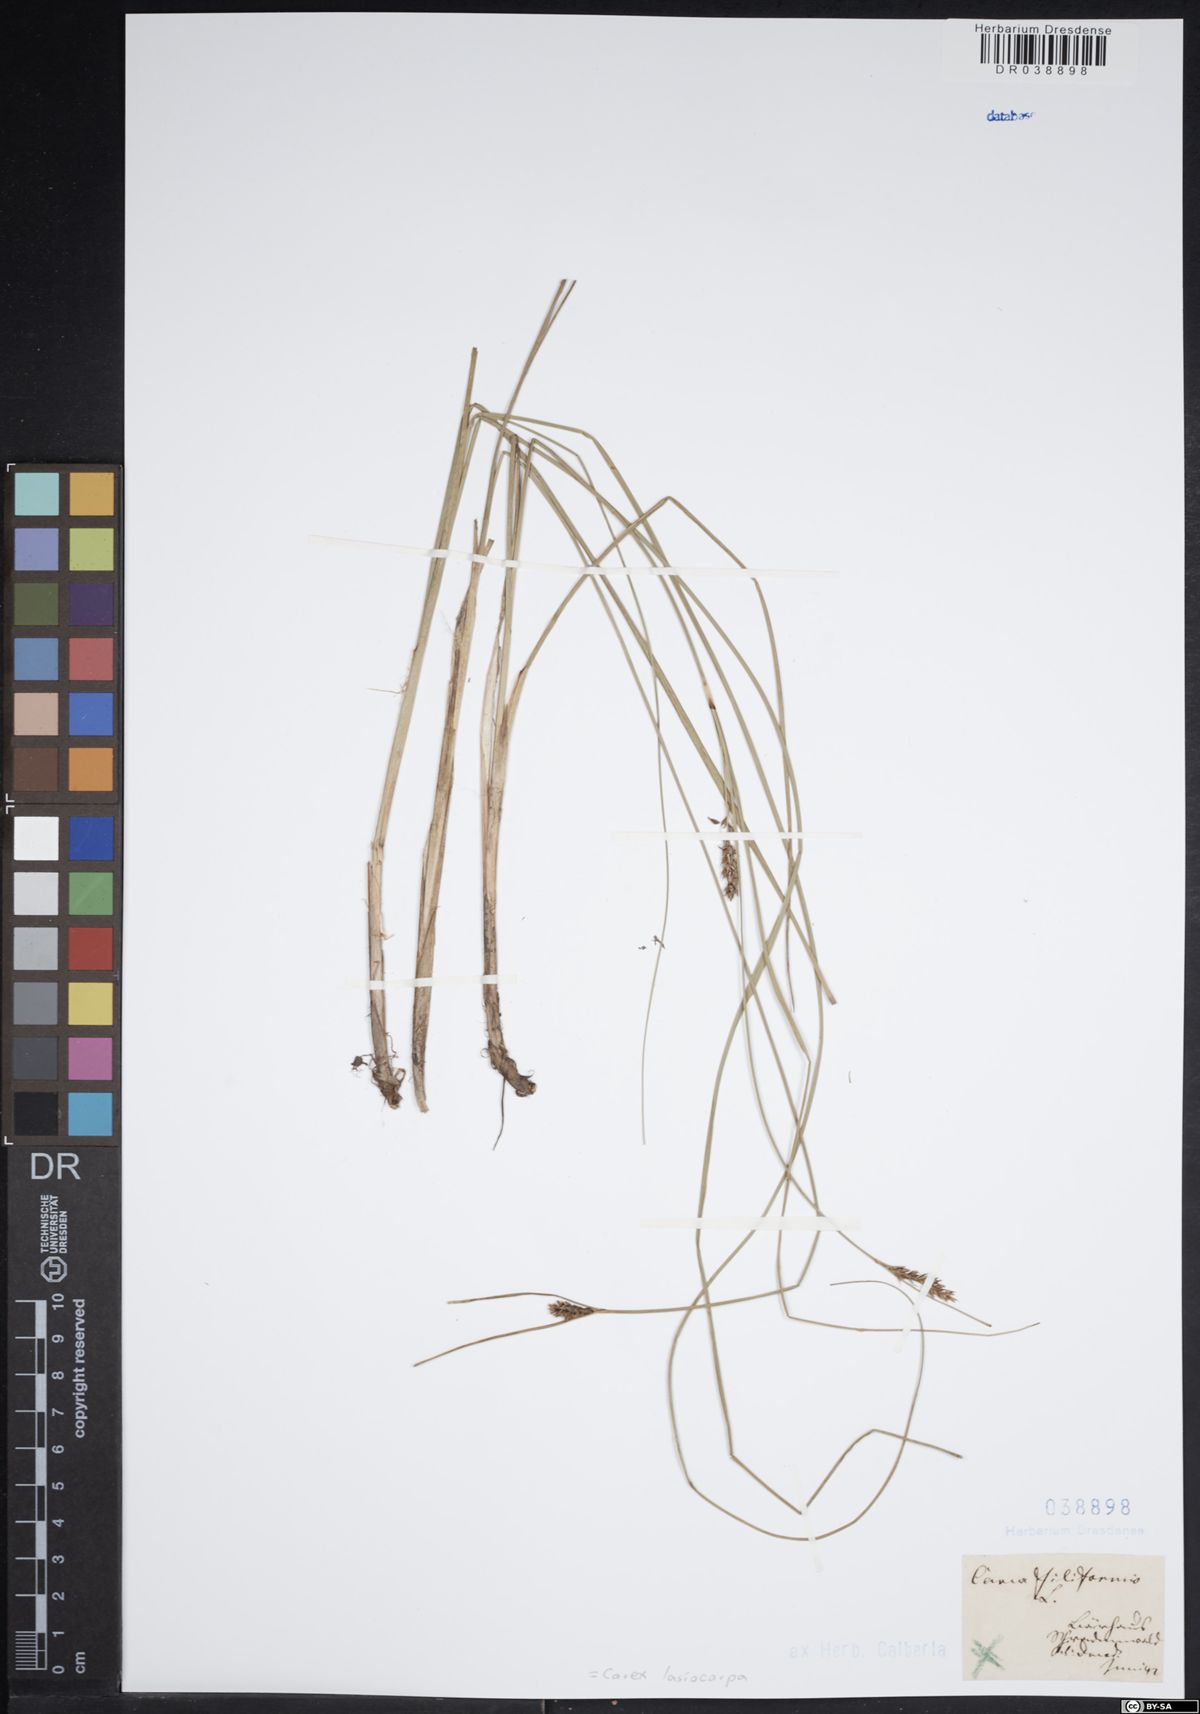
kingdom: Plantae
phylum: Tracheophyta
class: Liliopsida
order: Poales
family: Cyperaceae
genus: Carex
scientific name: Carex lasiocarpa
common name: Slender sedge
